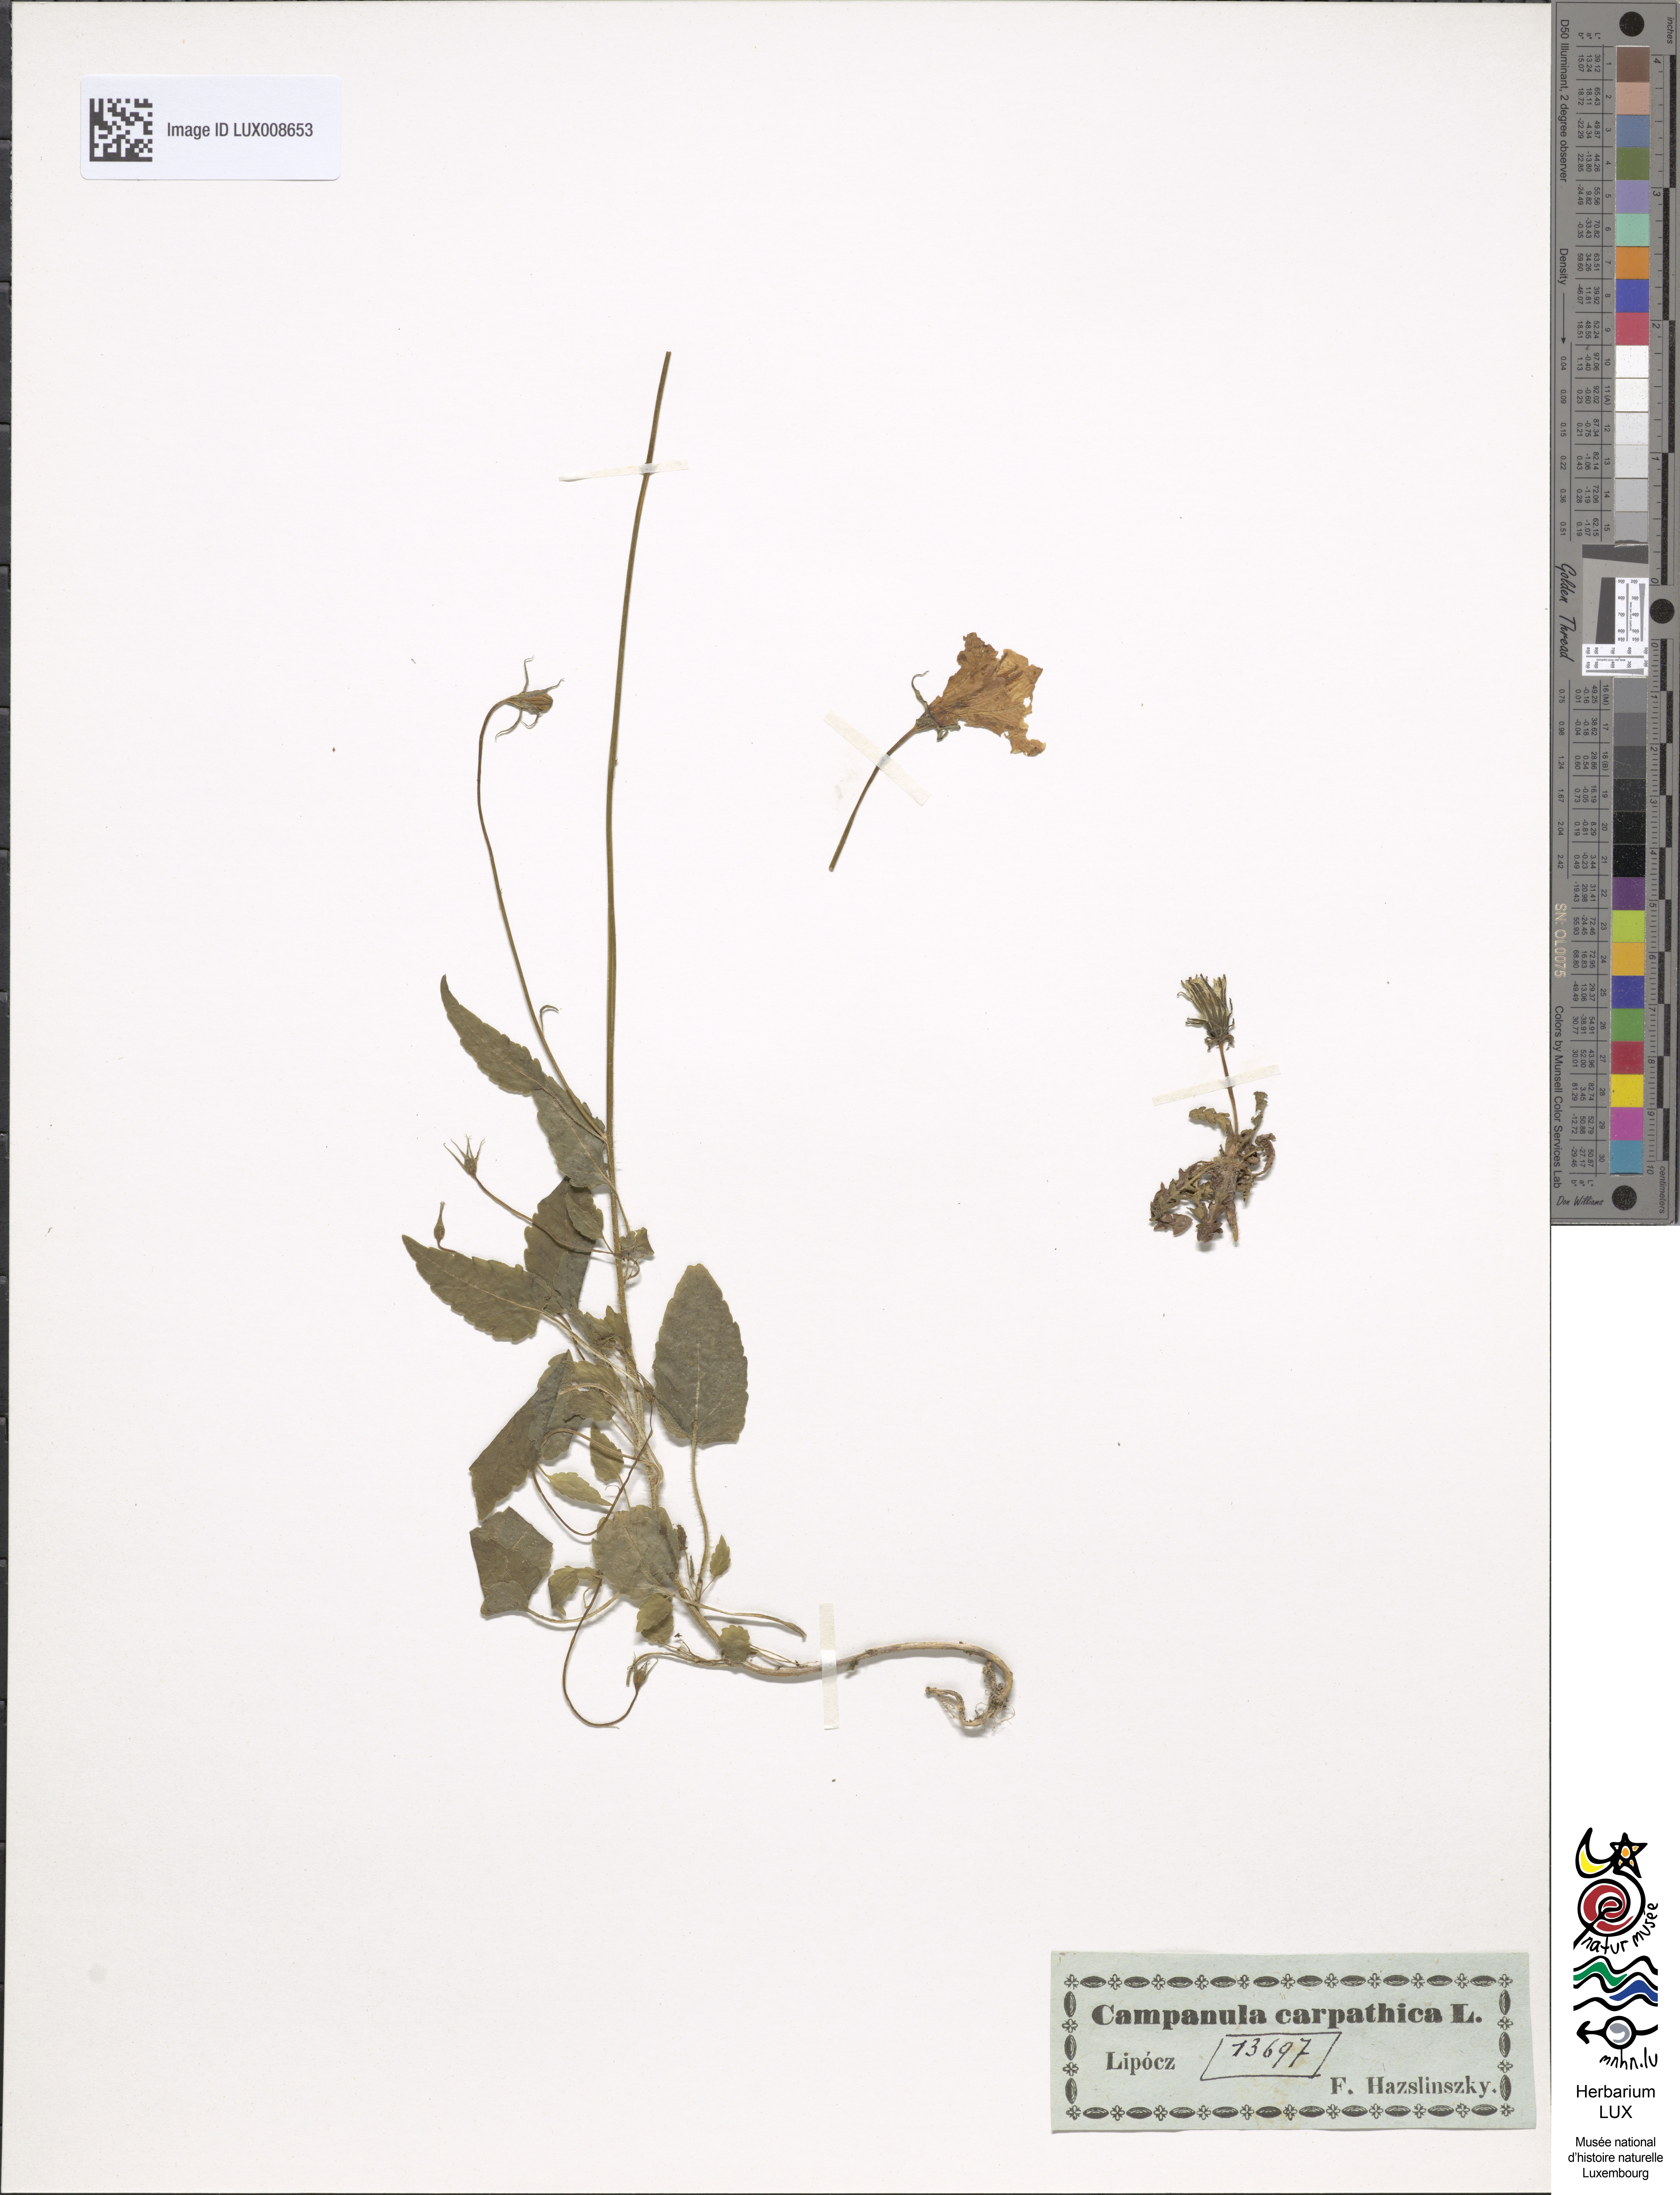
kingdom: Plantae
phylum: Tracheophyta
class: Magnoliopsida
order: Asterales
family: Campanulaceae
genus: Campanula
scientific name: Campanula carpatica
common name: Tussock bellflower
